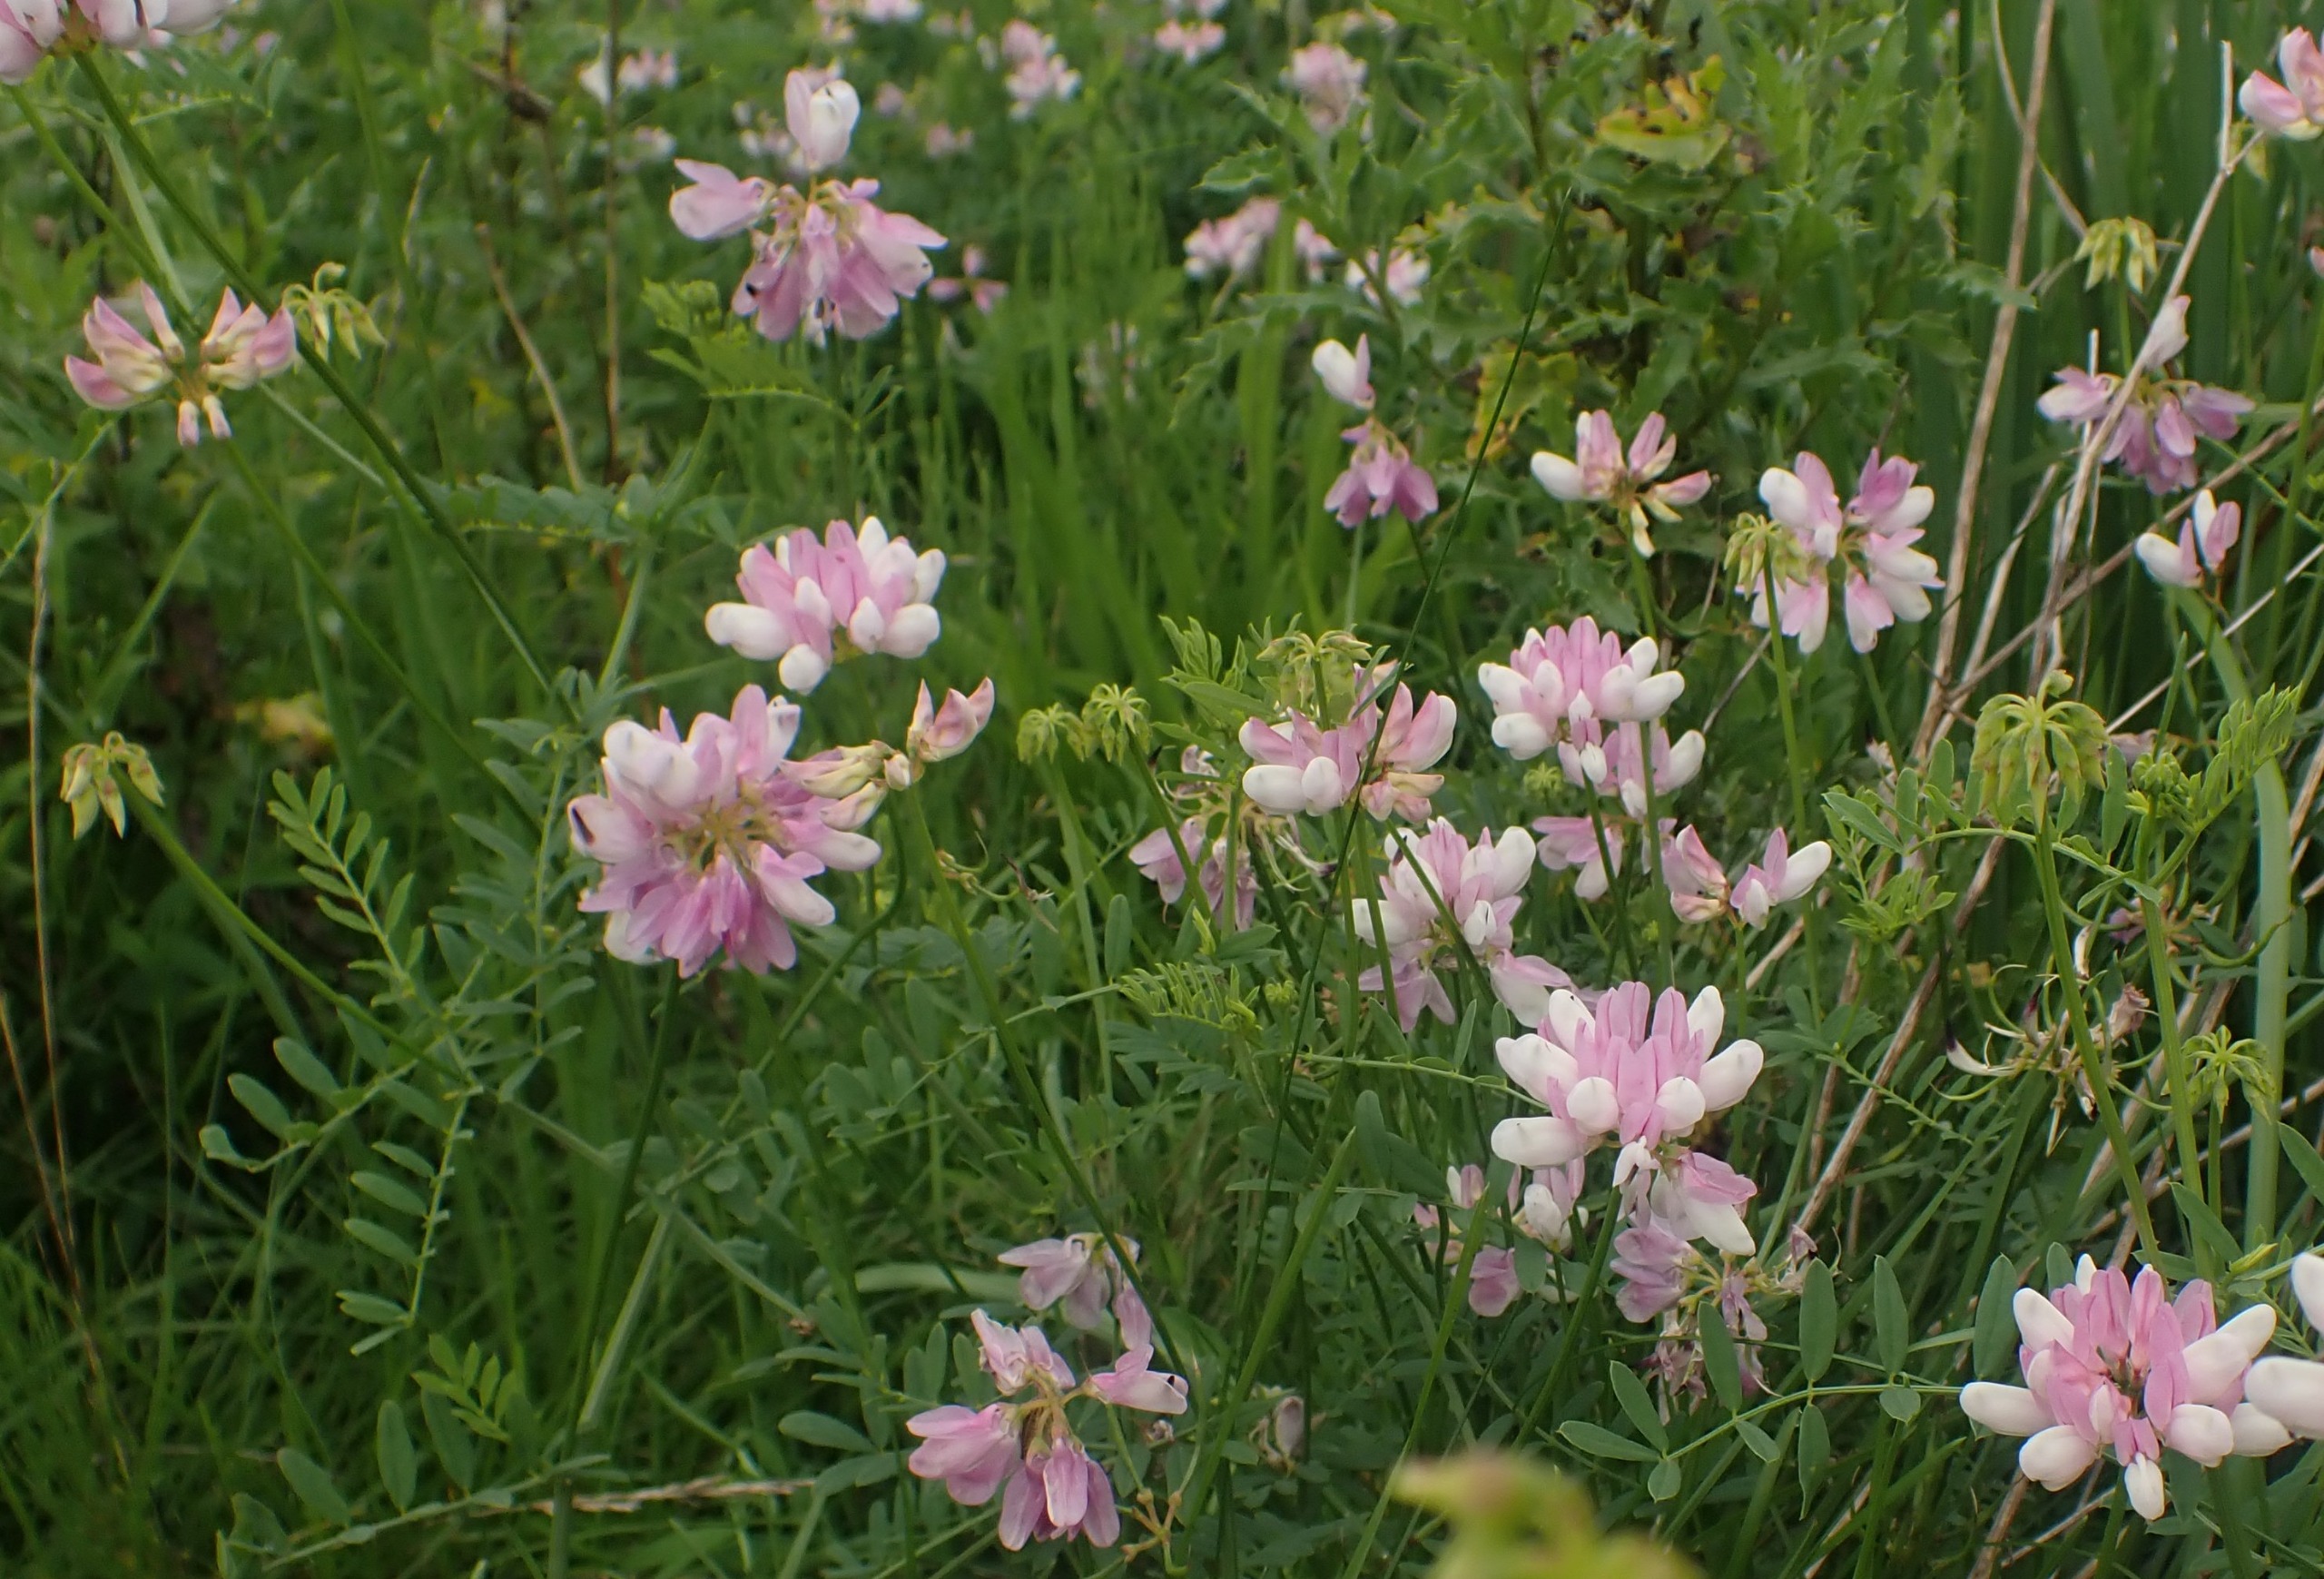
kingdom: Plantae
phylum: Tracheophyta
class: Magnoliopsida
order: Fabales
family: Fabaceae
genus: Coronilla
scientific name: Coronilla varia
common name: Giftig kronvikke
